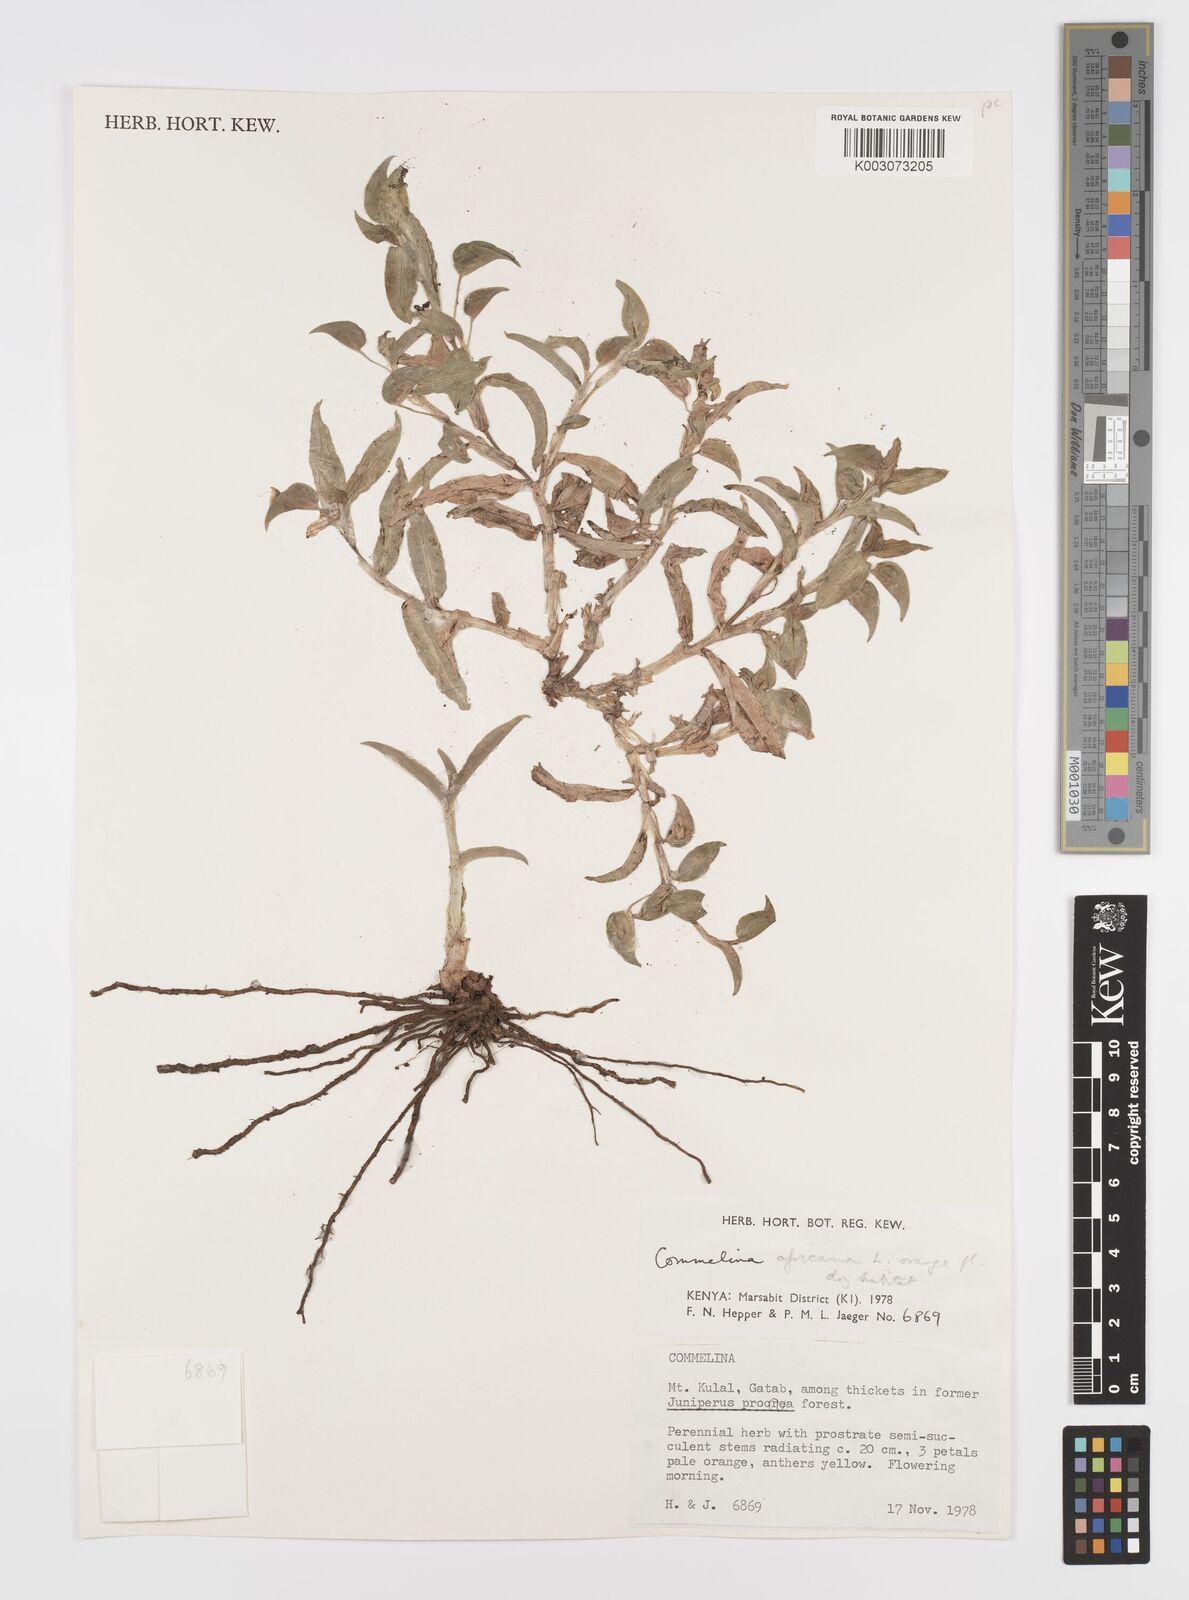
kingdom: Plantae
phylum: Tracheophyta
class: Liliopsida
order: Commelinales
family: Commelinaceae
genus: Commelina
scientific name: Commelina africana
